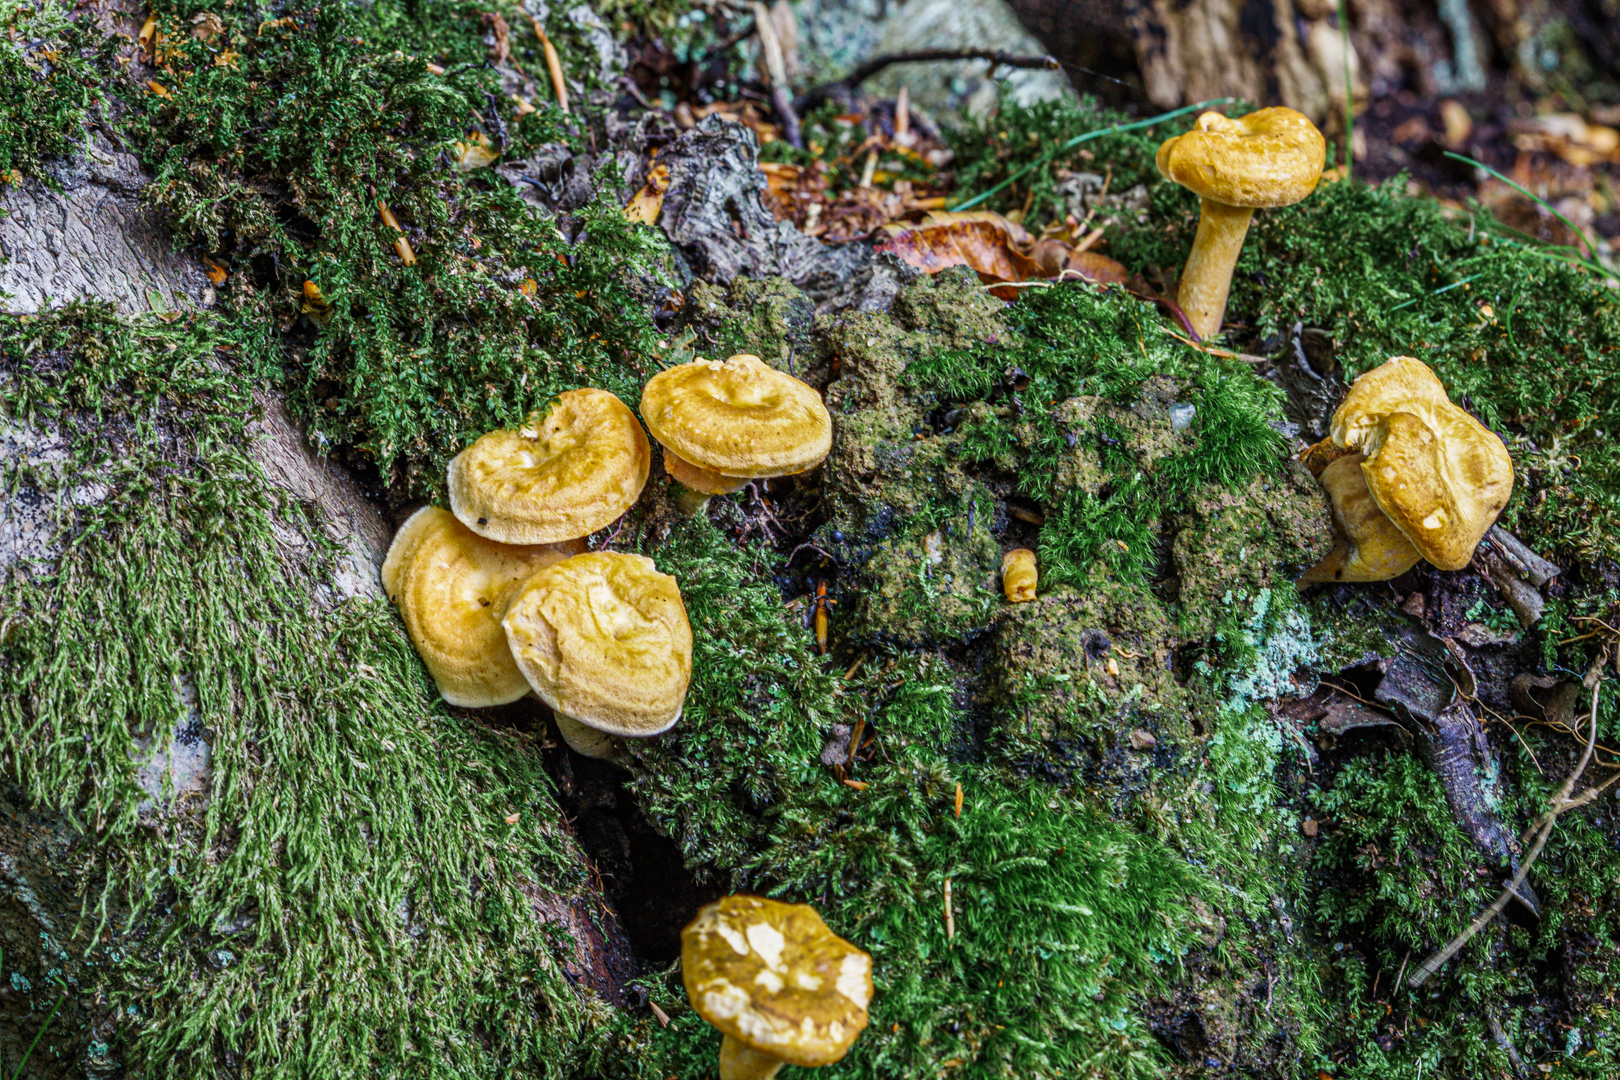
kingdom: Fungi
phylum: Basidiomycota
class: Agaricomycetes
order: Cantharellales
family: Hydnaceae
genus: Hydnum
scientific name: Hydnum
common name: pigsvamp
